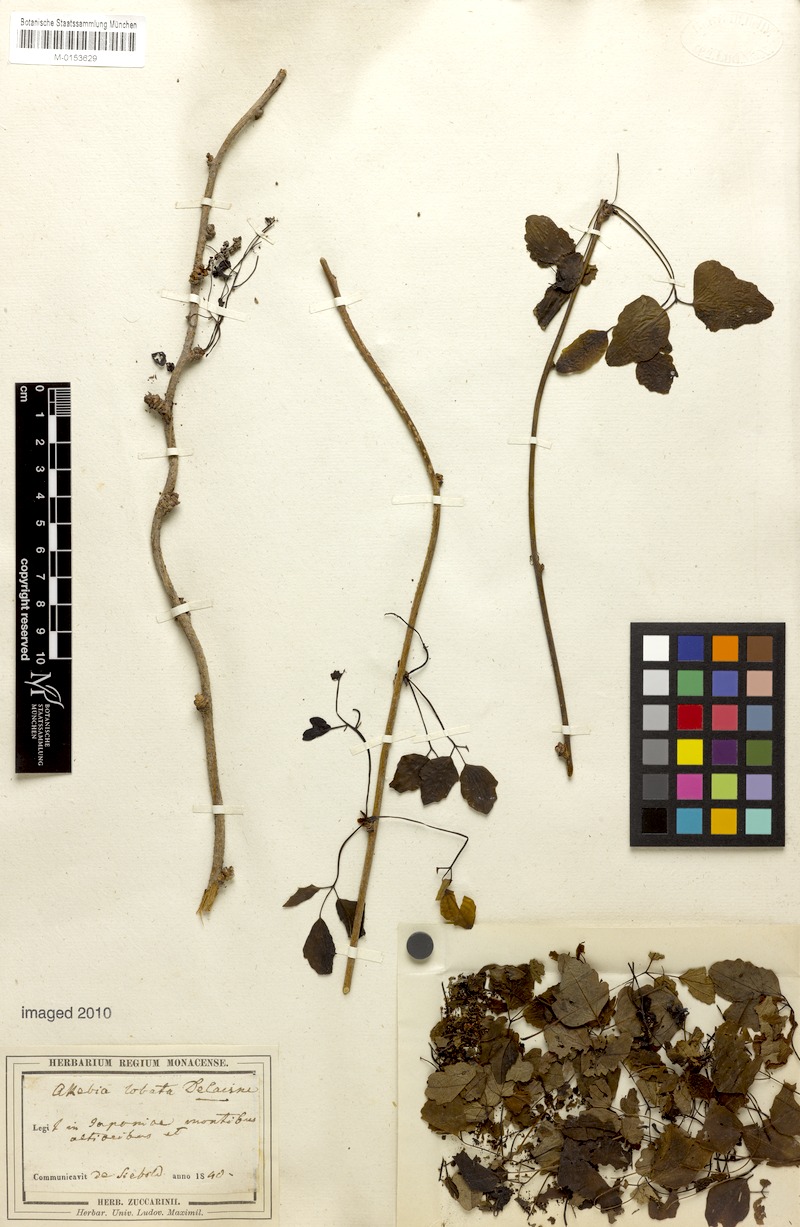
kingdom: Plantae
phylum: Tracheophyta
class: Magnoliopsida
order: Ranunculales
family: Lardizabalaceae
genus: Akebia
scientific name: Akebia trifoliata
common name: Chocolate-vine
